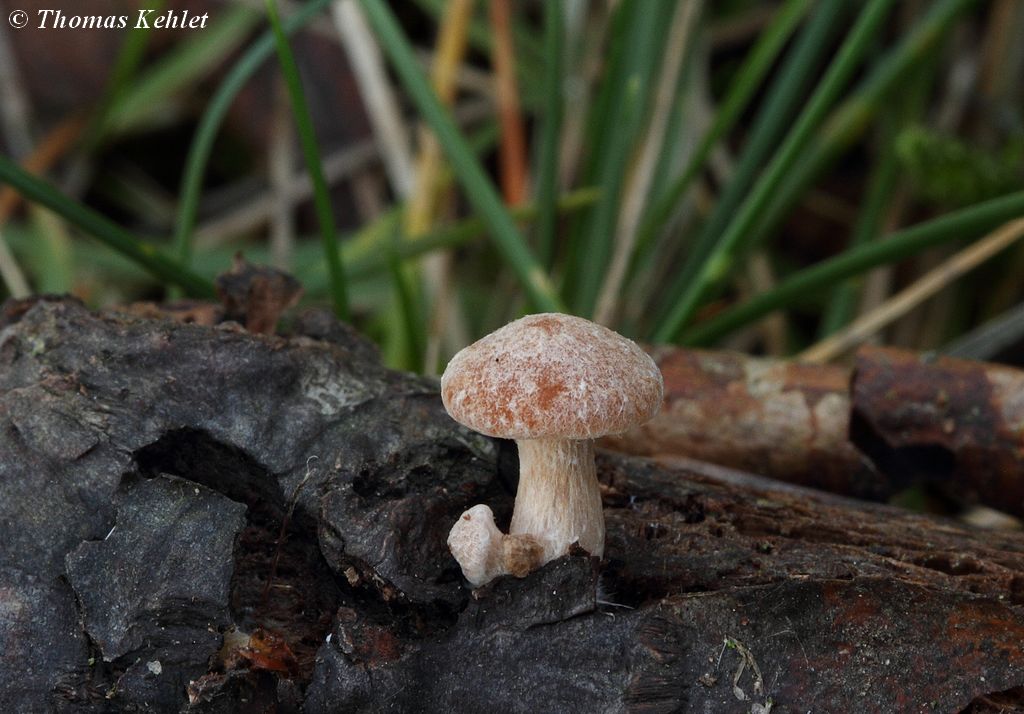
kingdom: Fungi
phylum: Basidiomycota
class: Agaricomycetes
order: Agaricales
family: Tubariaceae
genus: Tubaria
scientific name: Tubaria furfuracea
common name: kliddet fnughat
